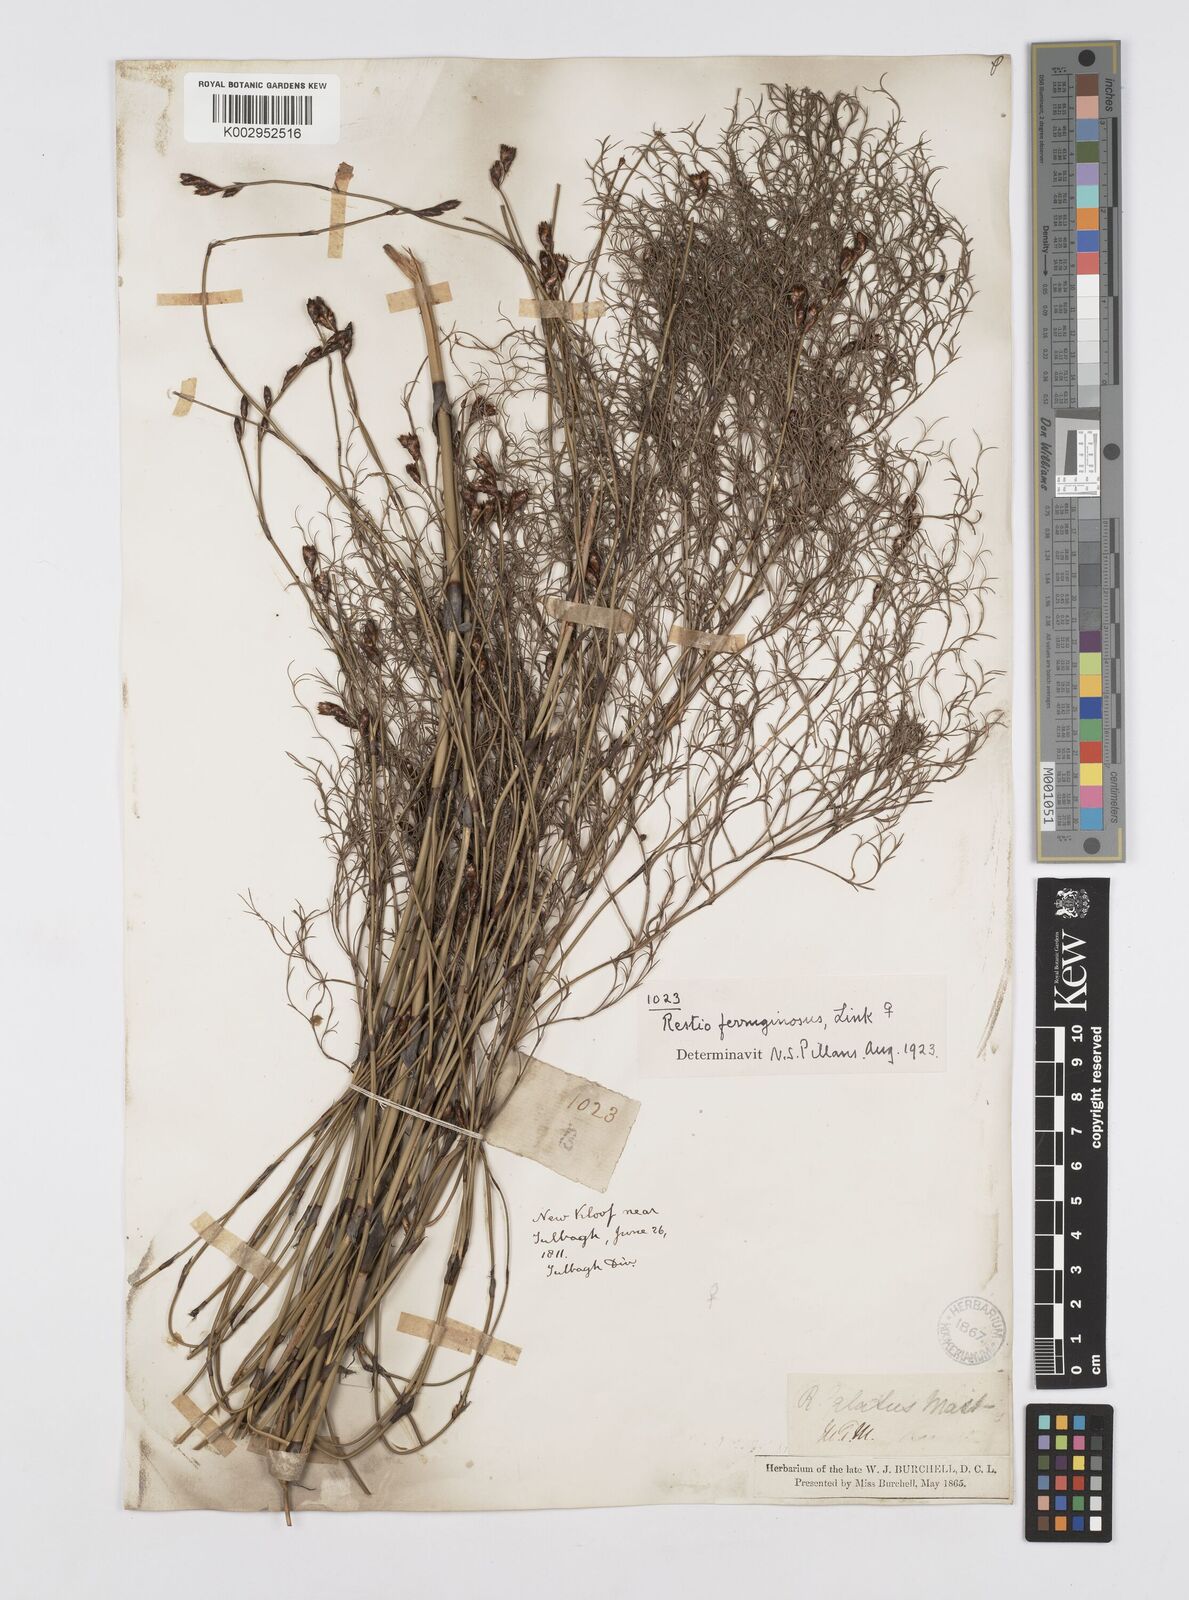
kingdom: Plantae
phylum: Tracheophyta
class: Liliopsida
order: Poales
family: Restionaceae
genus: Restio
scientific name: Restio gaudichaudianus
